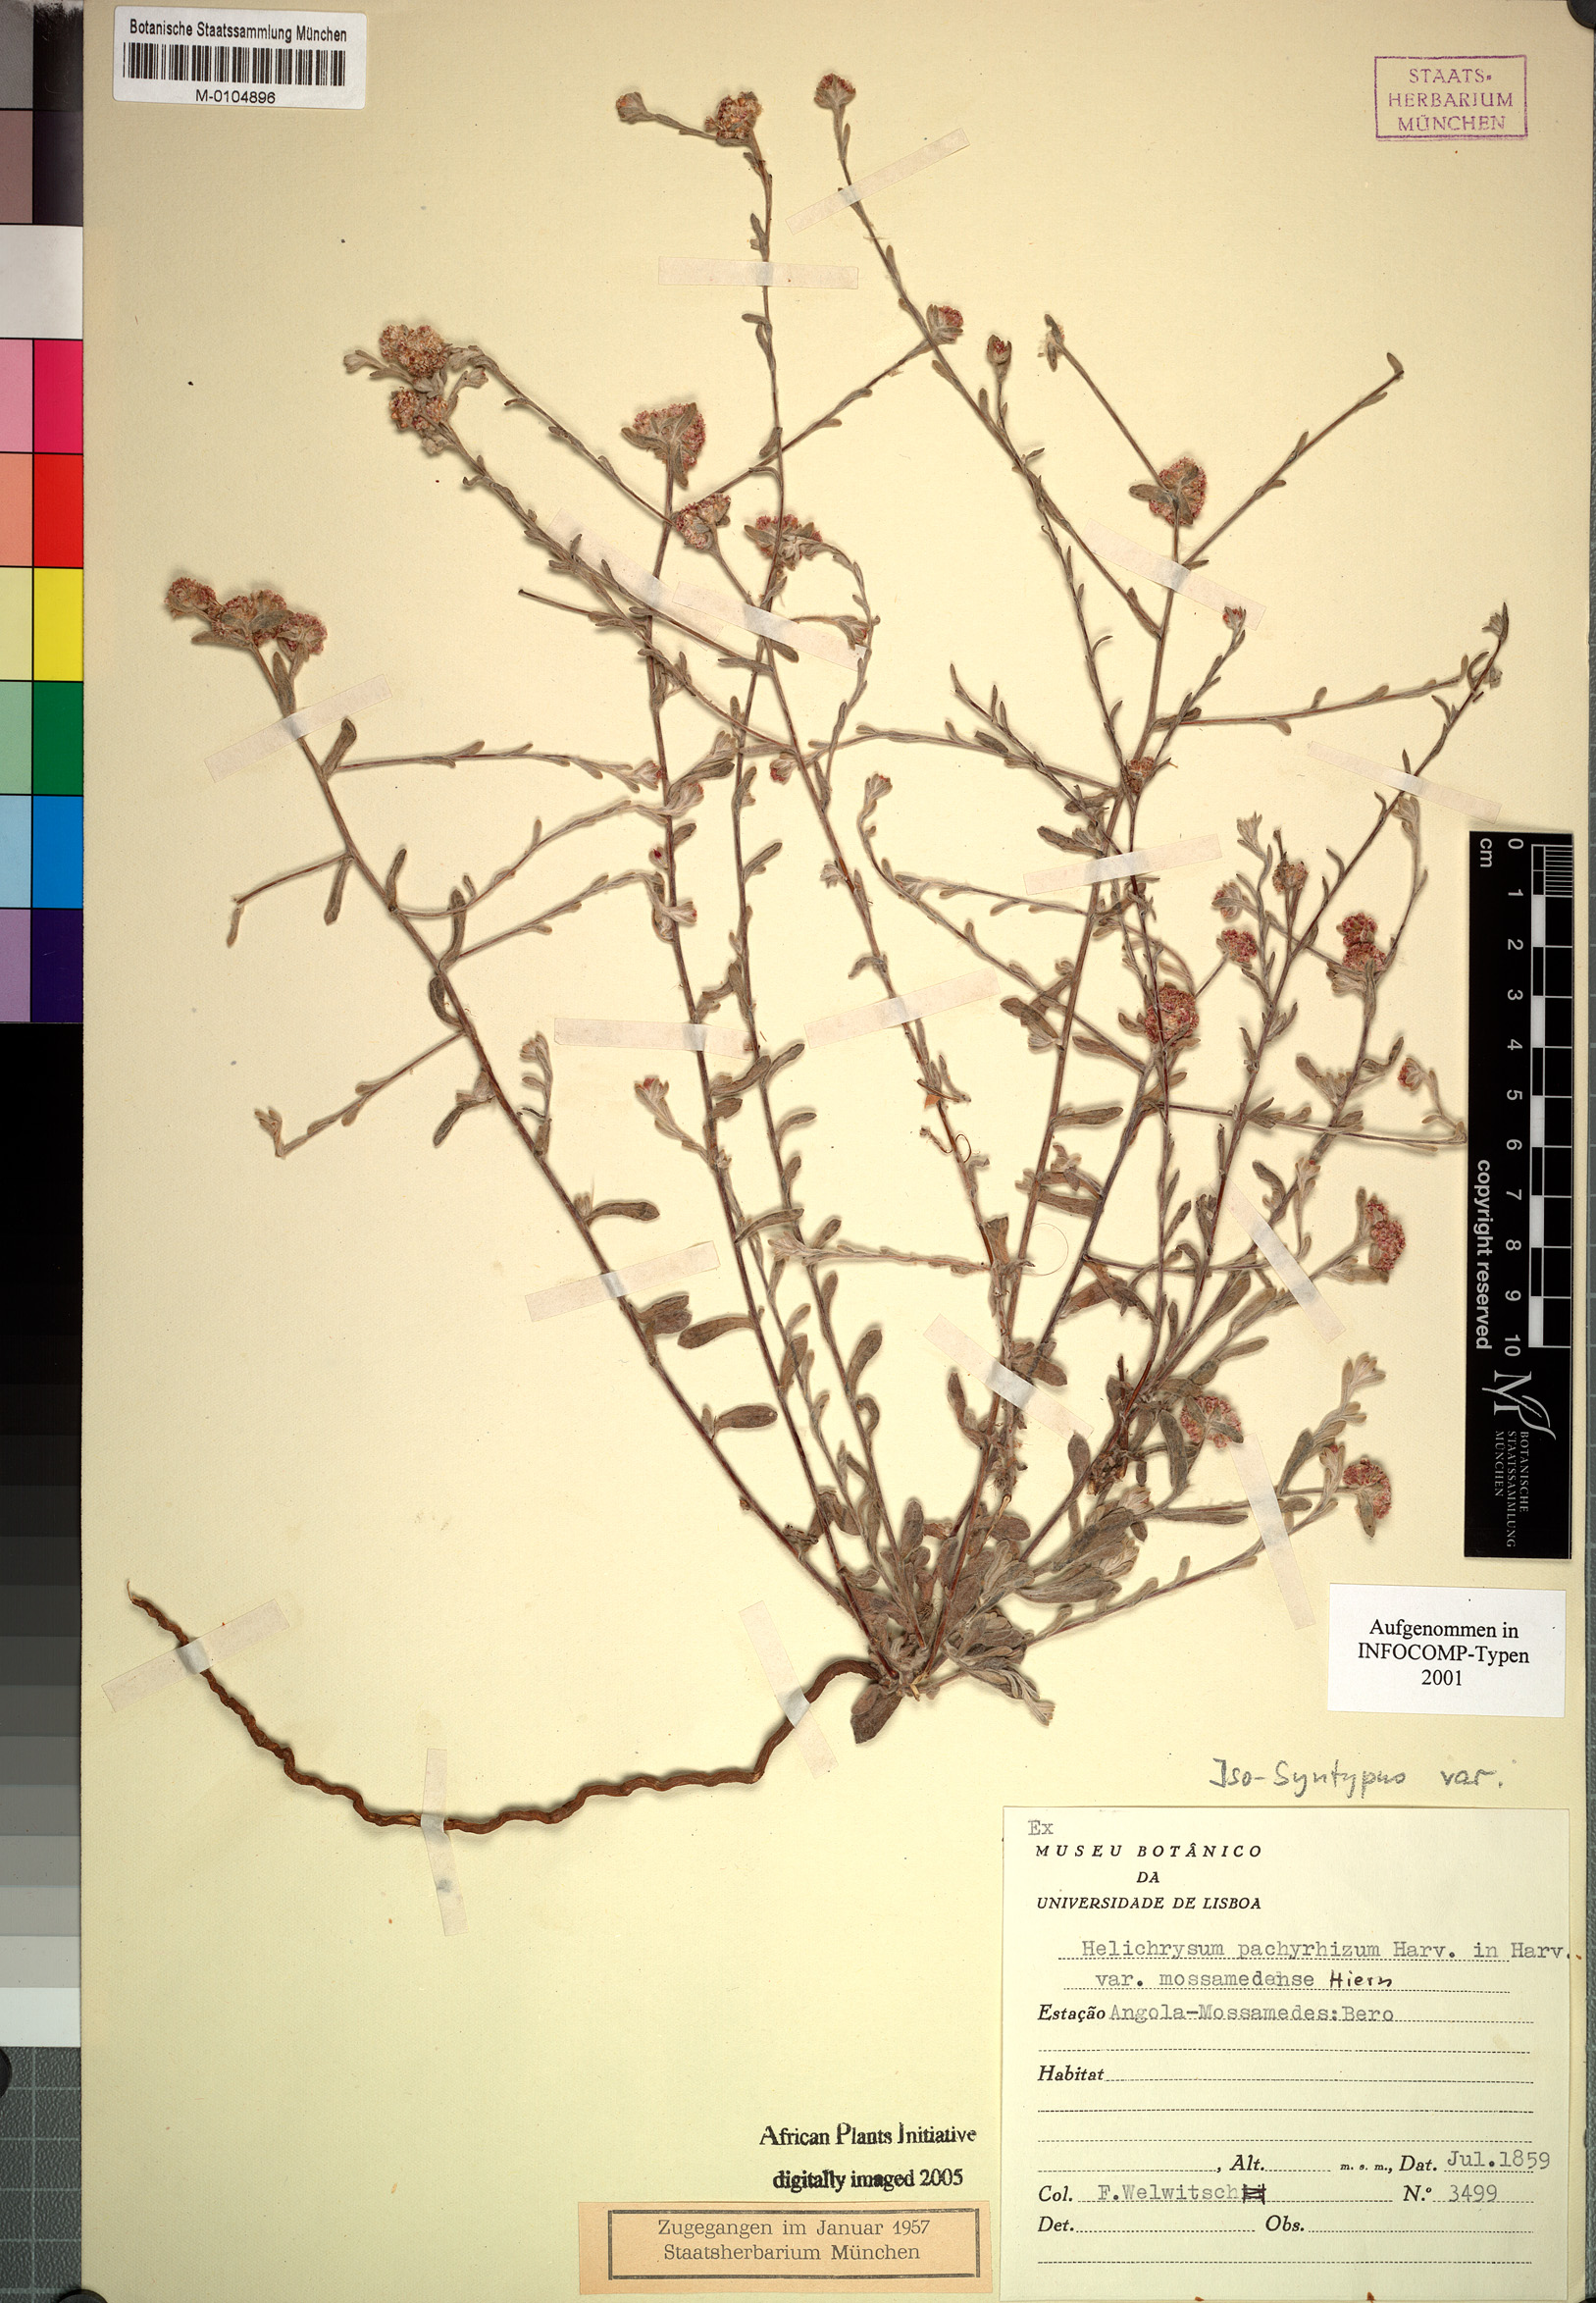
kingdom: Plantae
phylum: Tracheophyta
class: Magnoliopsida
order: Asterales
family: Asteraceae
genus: Helichrysum
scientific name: Helichrysum candolleanum
